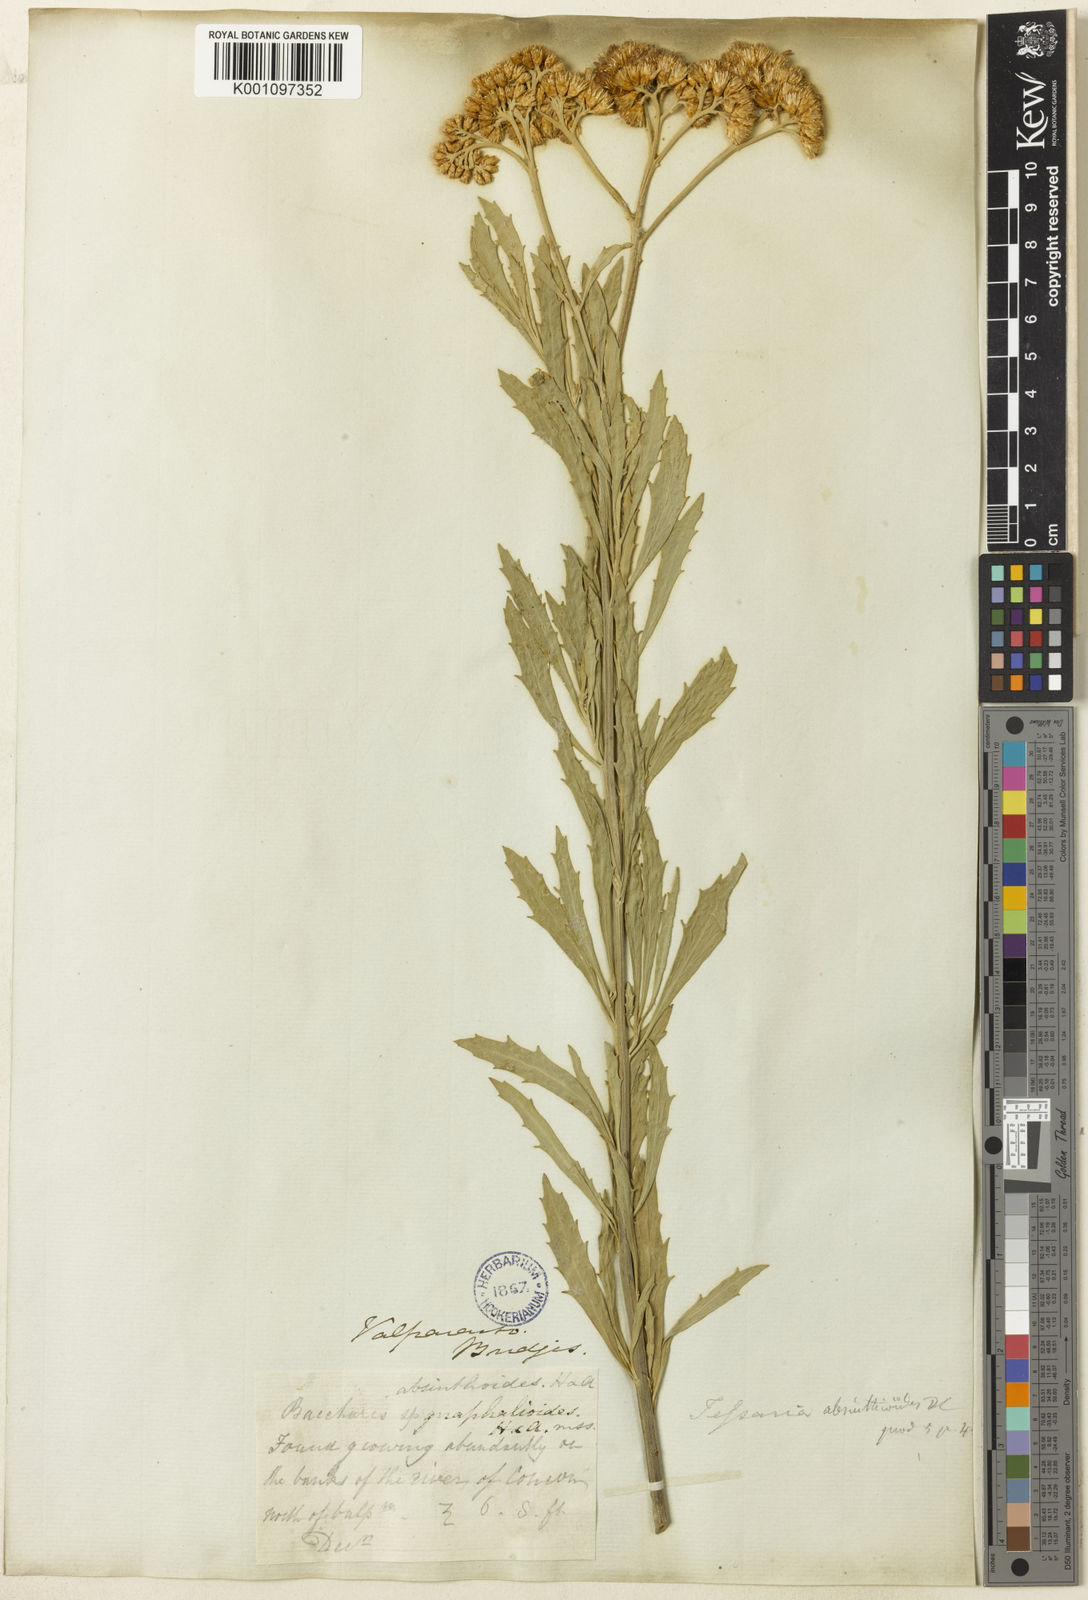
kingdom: Plantae
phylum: Tracheophyta
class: Magnoliopsida
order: Asterales
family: Asteraceae
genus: Tessaria
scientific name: Tessaria absinthioides
